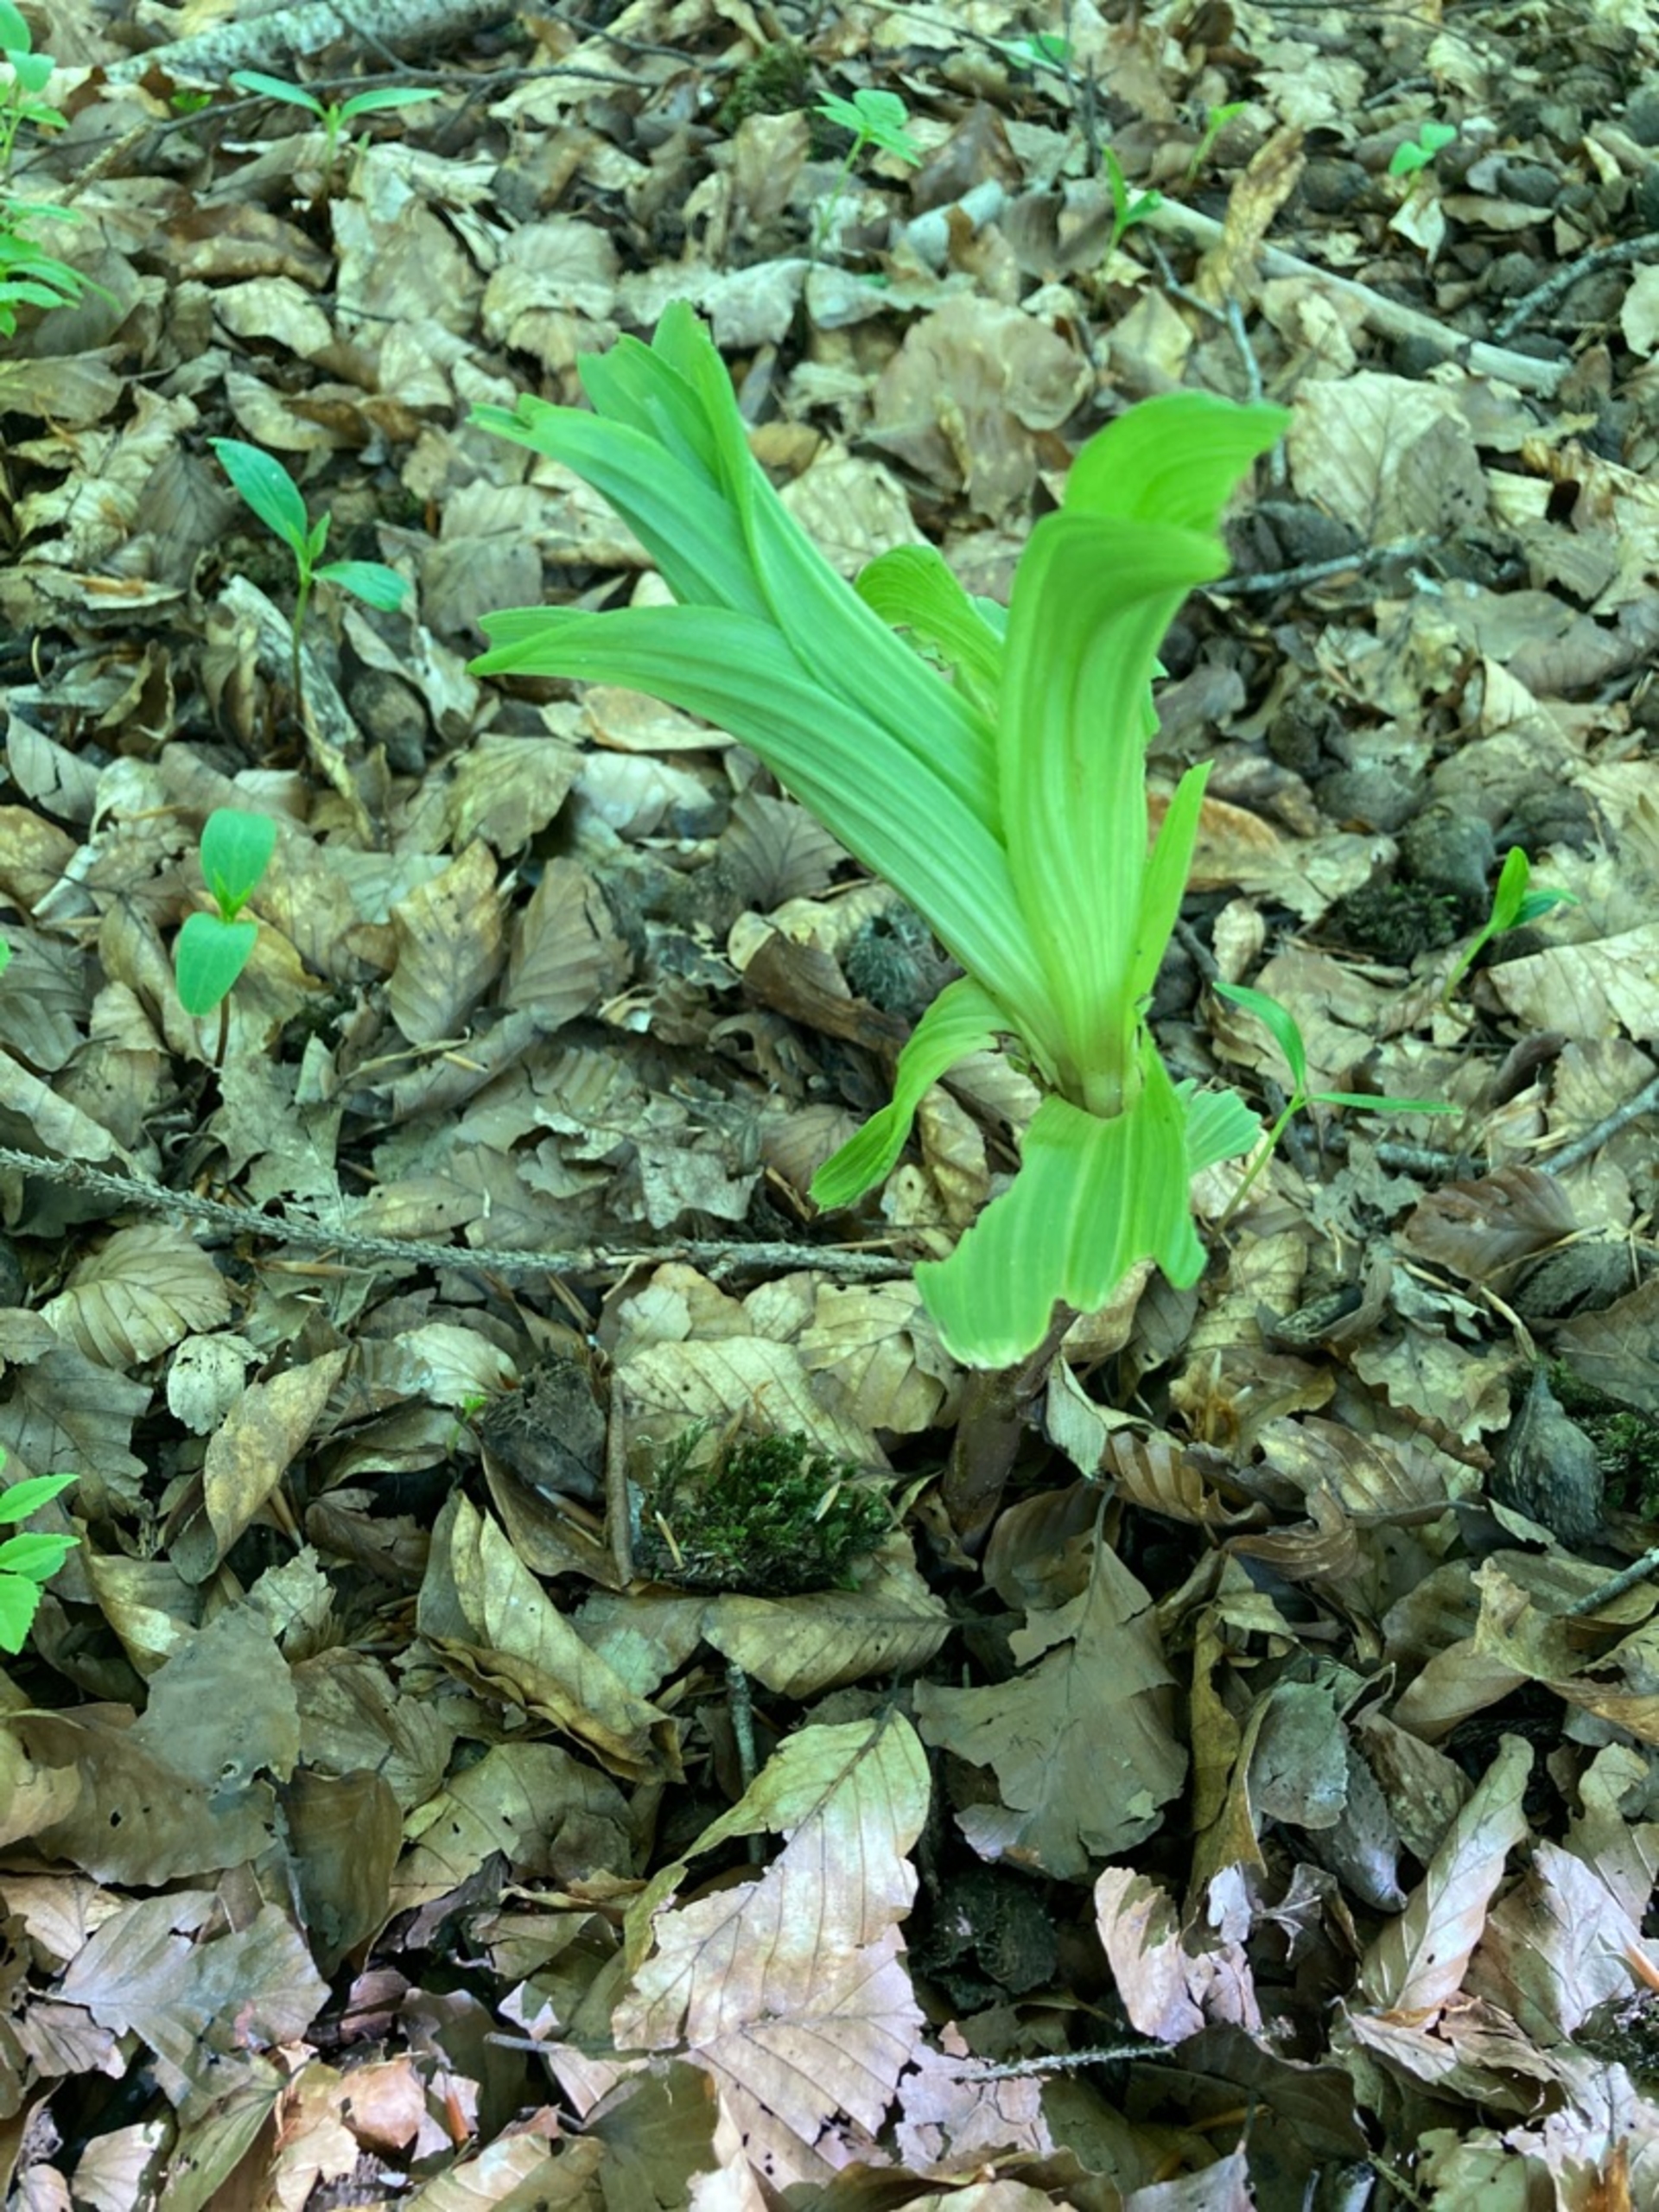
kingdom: Plantae
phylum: Tracheophyta
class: Liliopsida
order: Asparagales
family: Orchidaceae
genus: Epipactis
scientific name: Epipactis helleborine
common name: Skov-hullæbe
